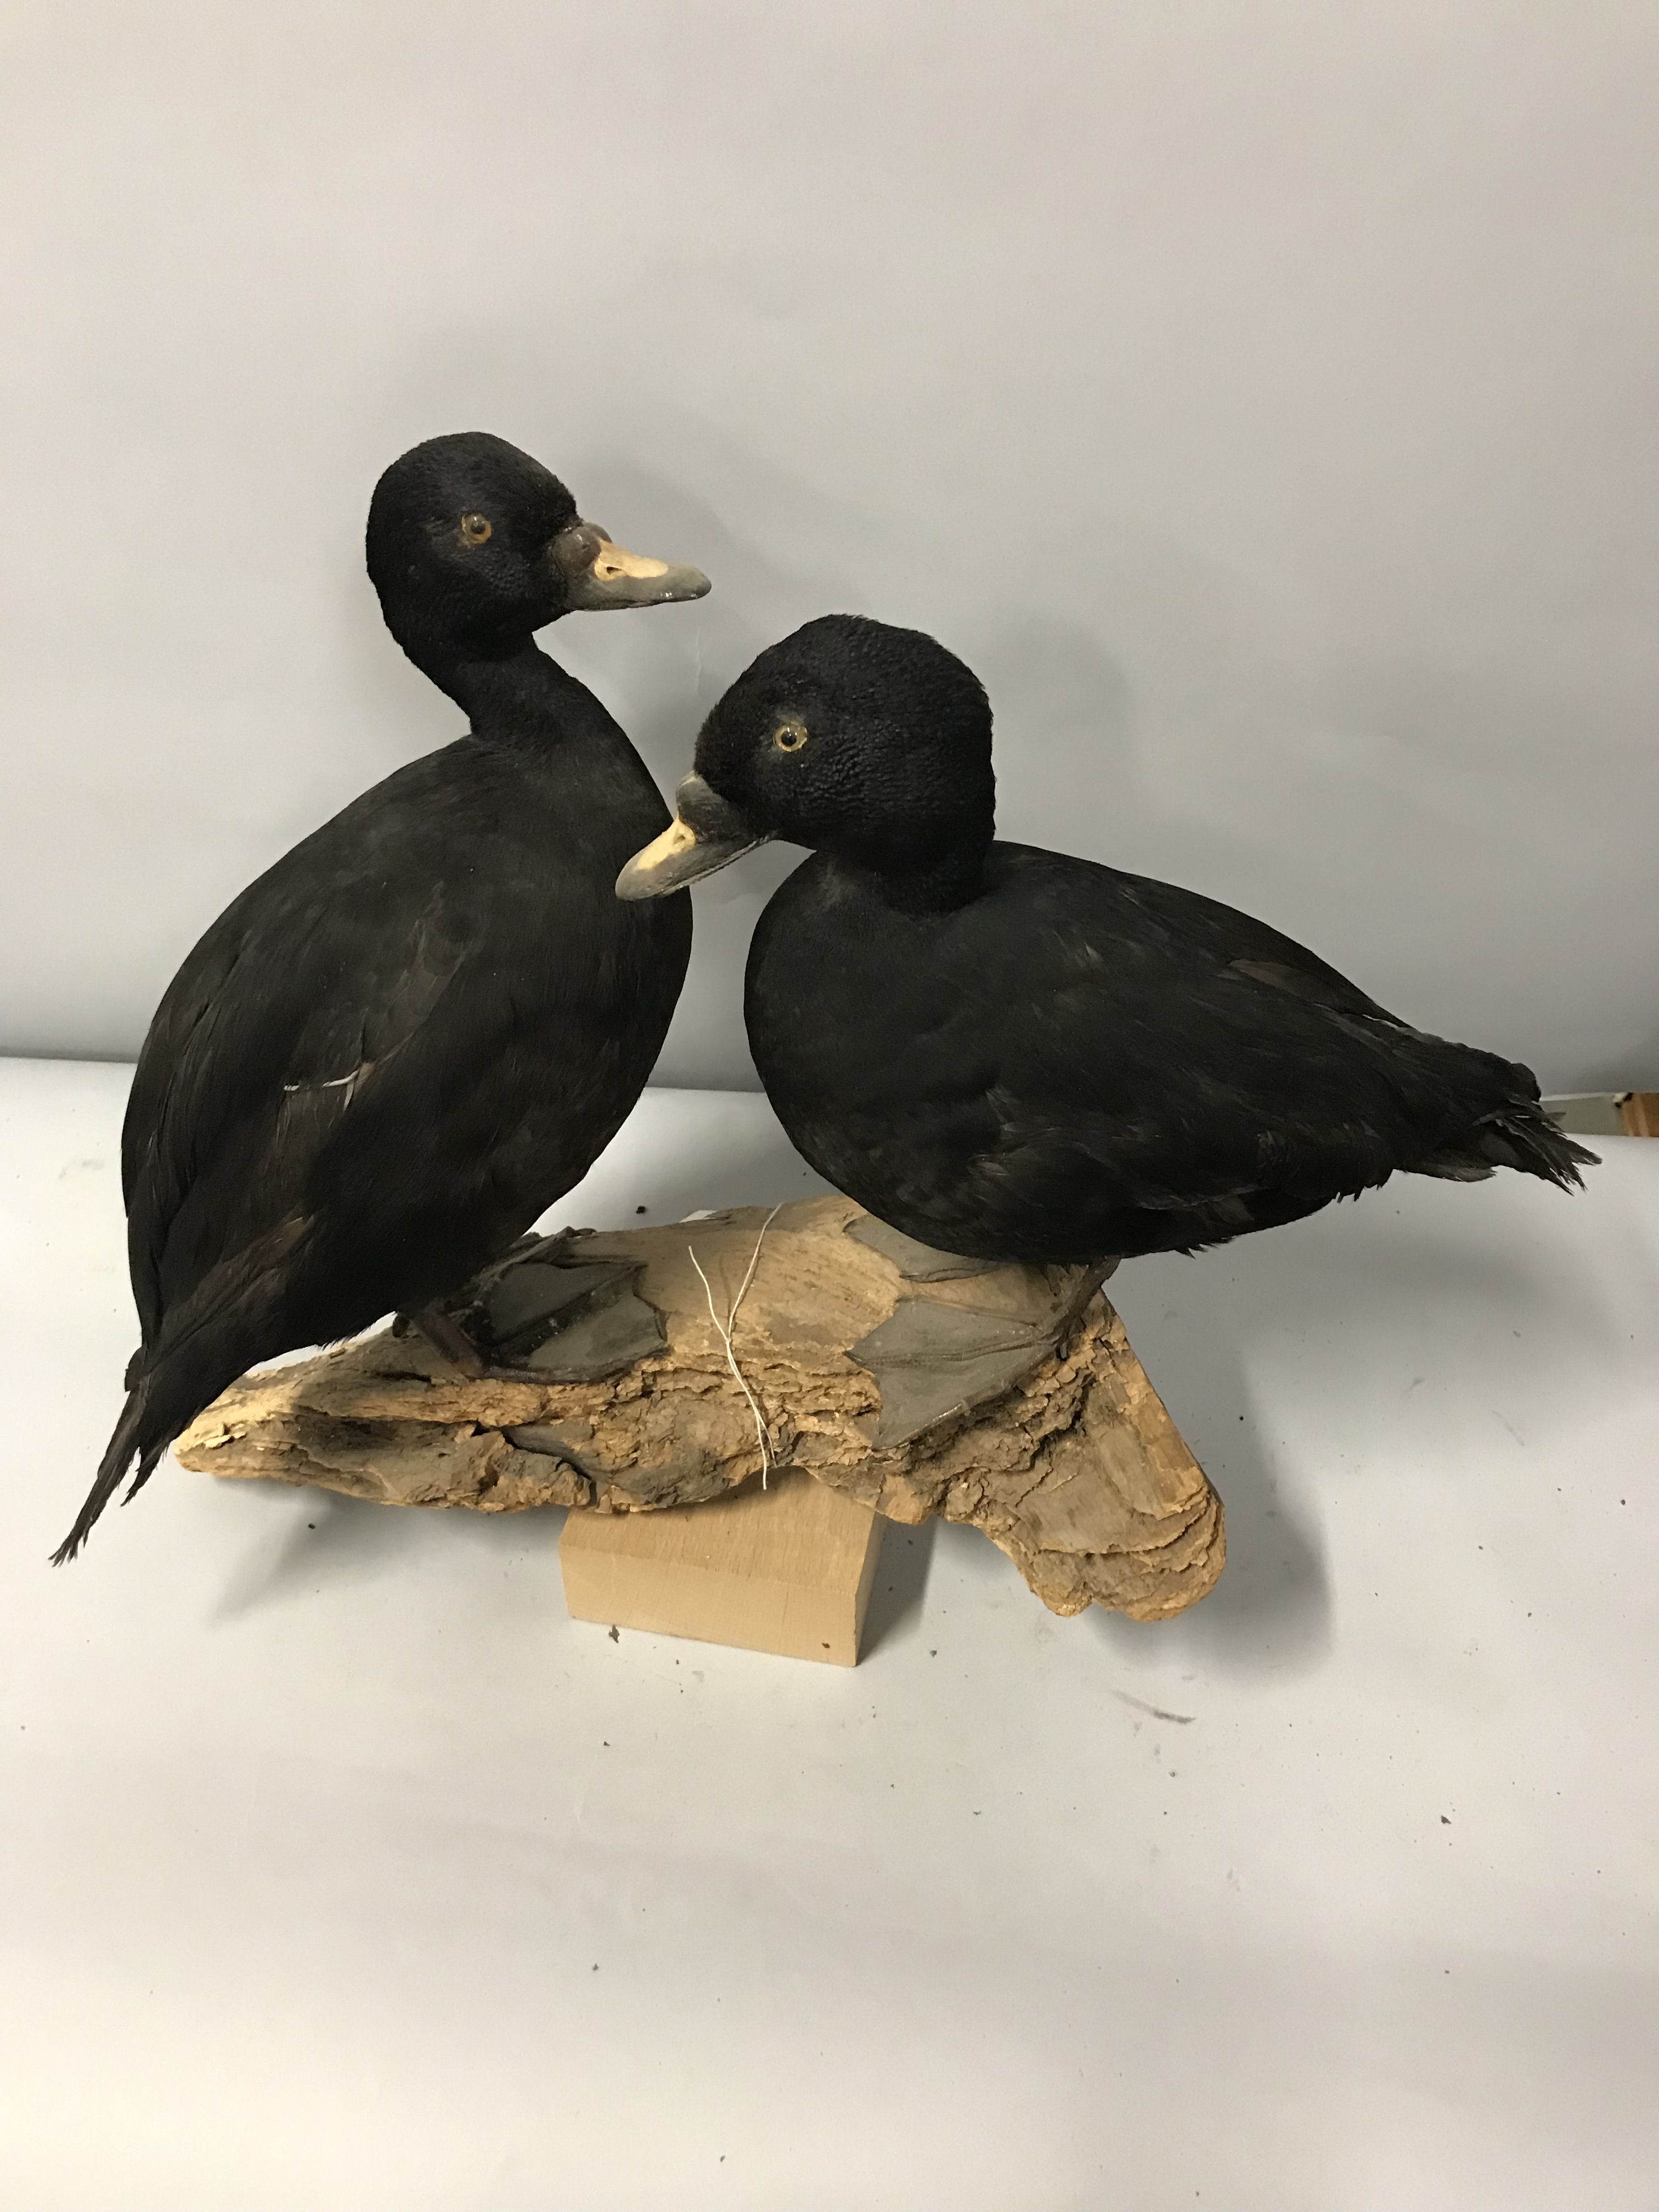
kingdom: Animalia
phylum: Chordata
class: Aves
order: Anseriformes
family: Anatidae
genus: Melanitta
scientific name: Melanitta nigra
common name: Common scoter
